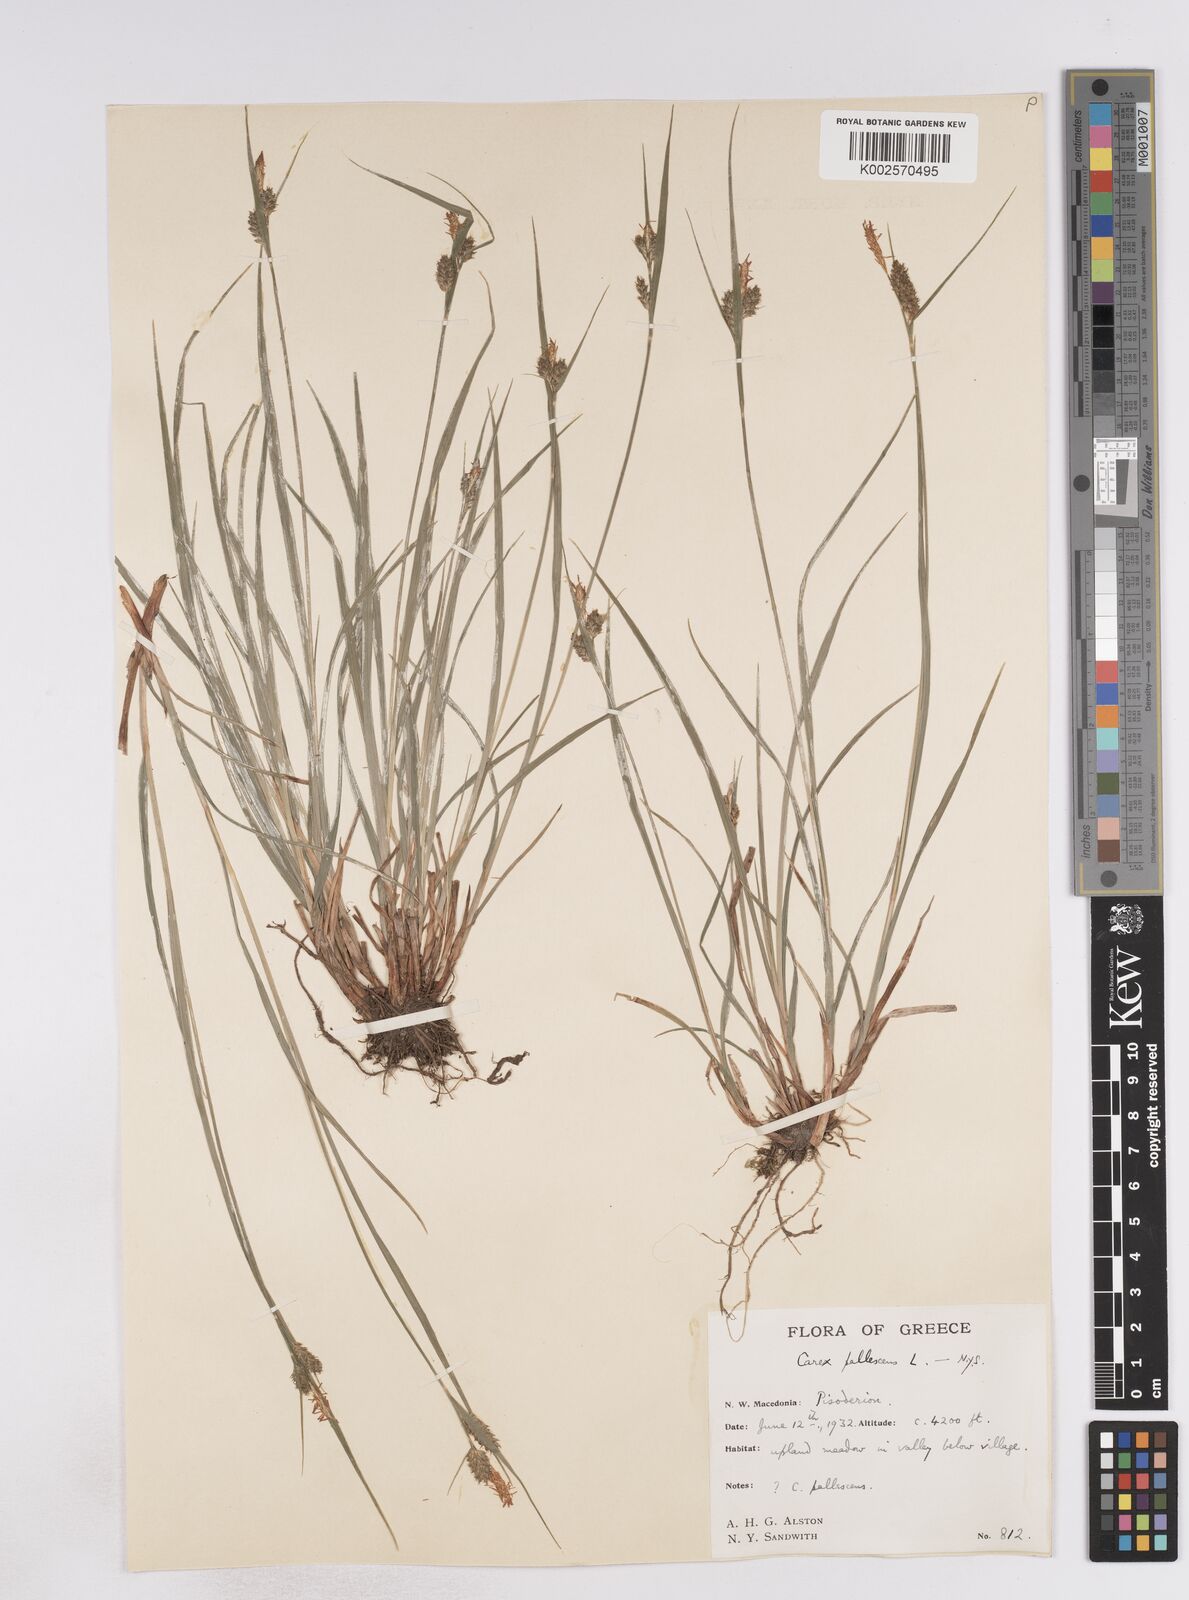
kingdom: Plantae
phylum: Tracheophyta
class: Liliopsida
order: Poales
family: Cyperaceae
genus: Carex
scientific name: Carex pallescens
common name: Pale sedge
